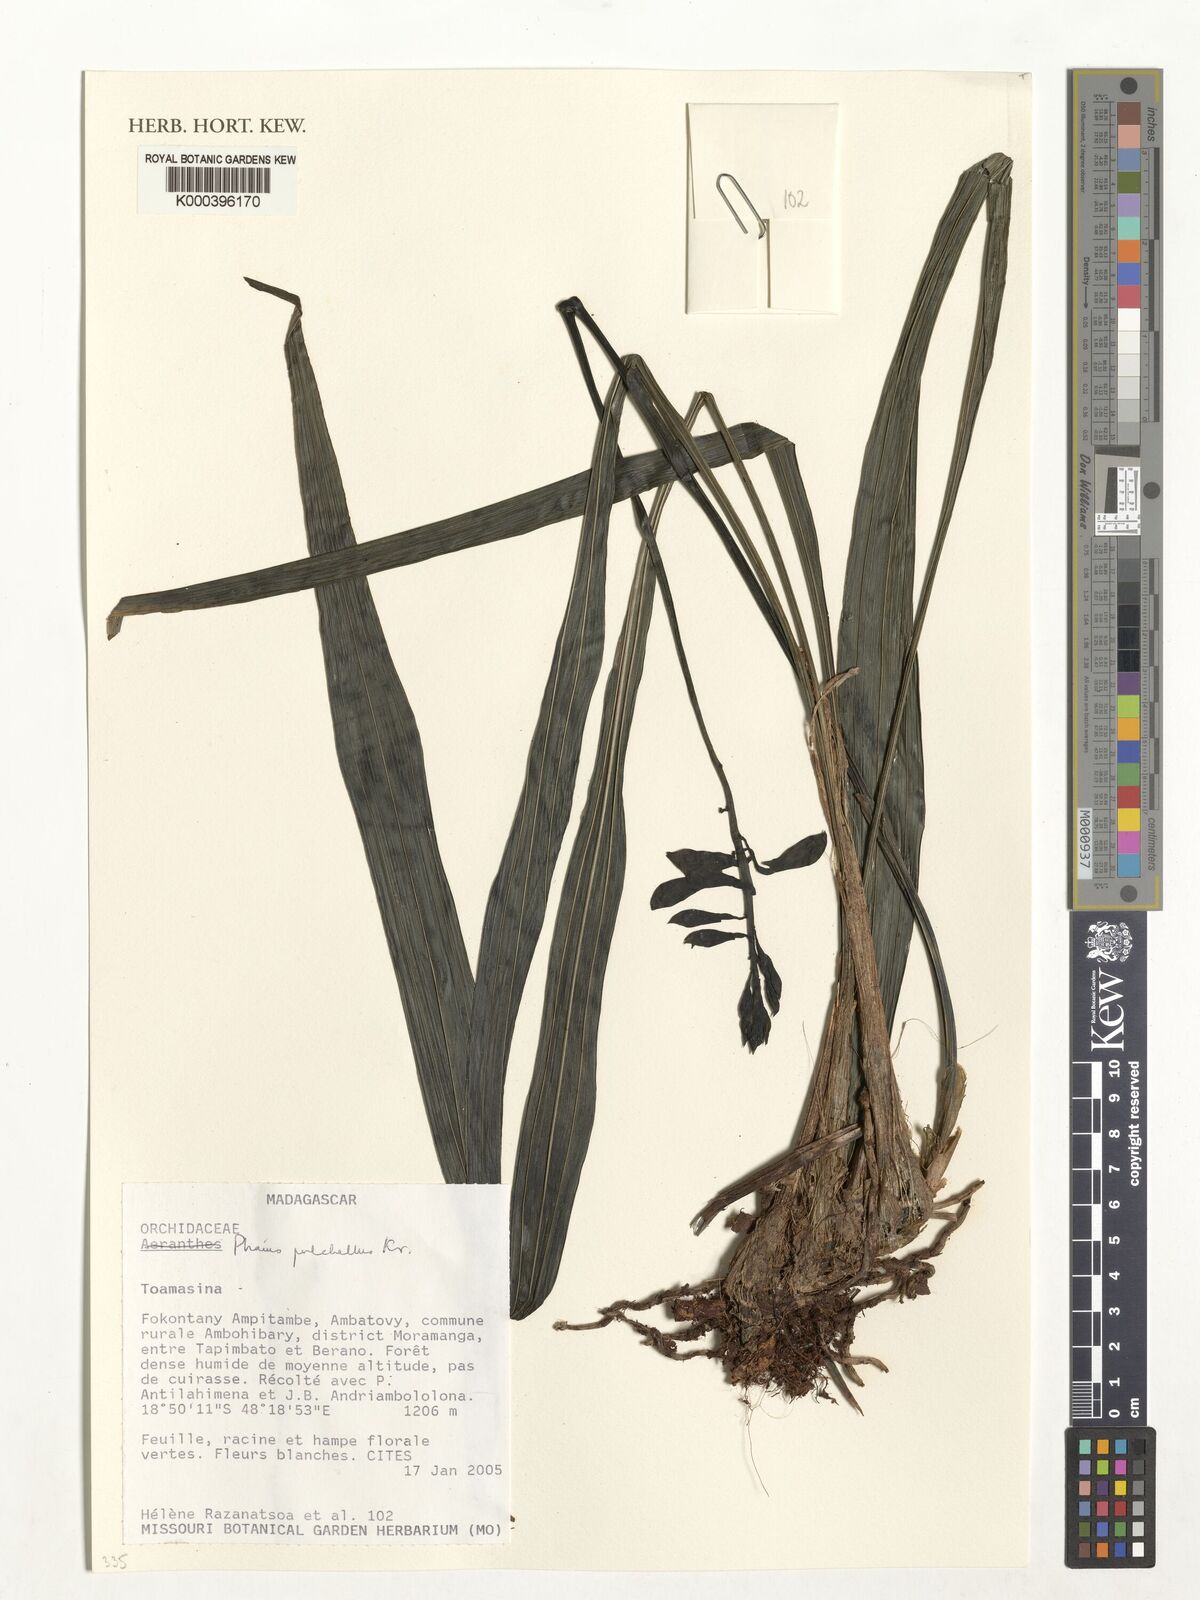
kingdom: Plantae
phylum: Tracheophyta
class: Liliopsida
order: Asparagales
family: Orchidaceae
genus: Calanthe
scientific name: Calanthe pulchella
